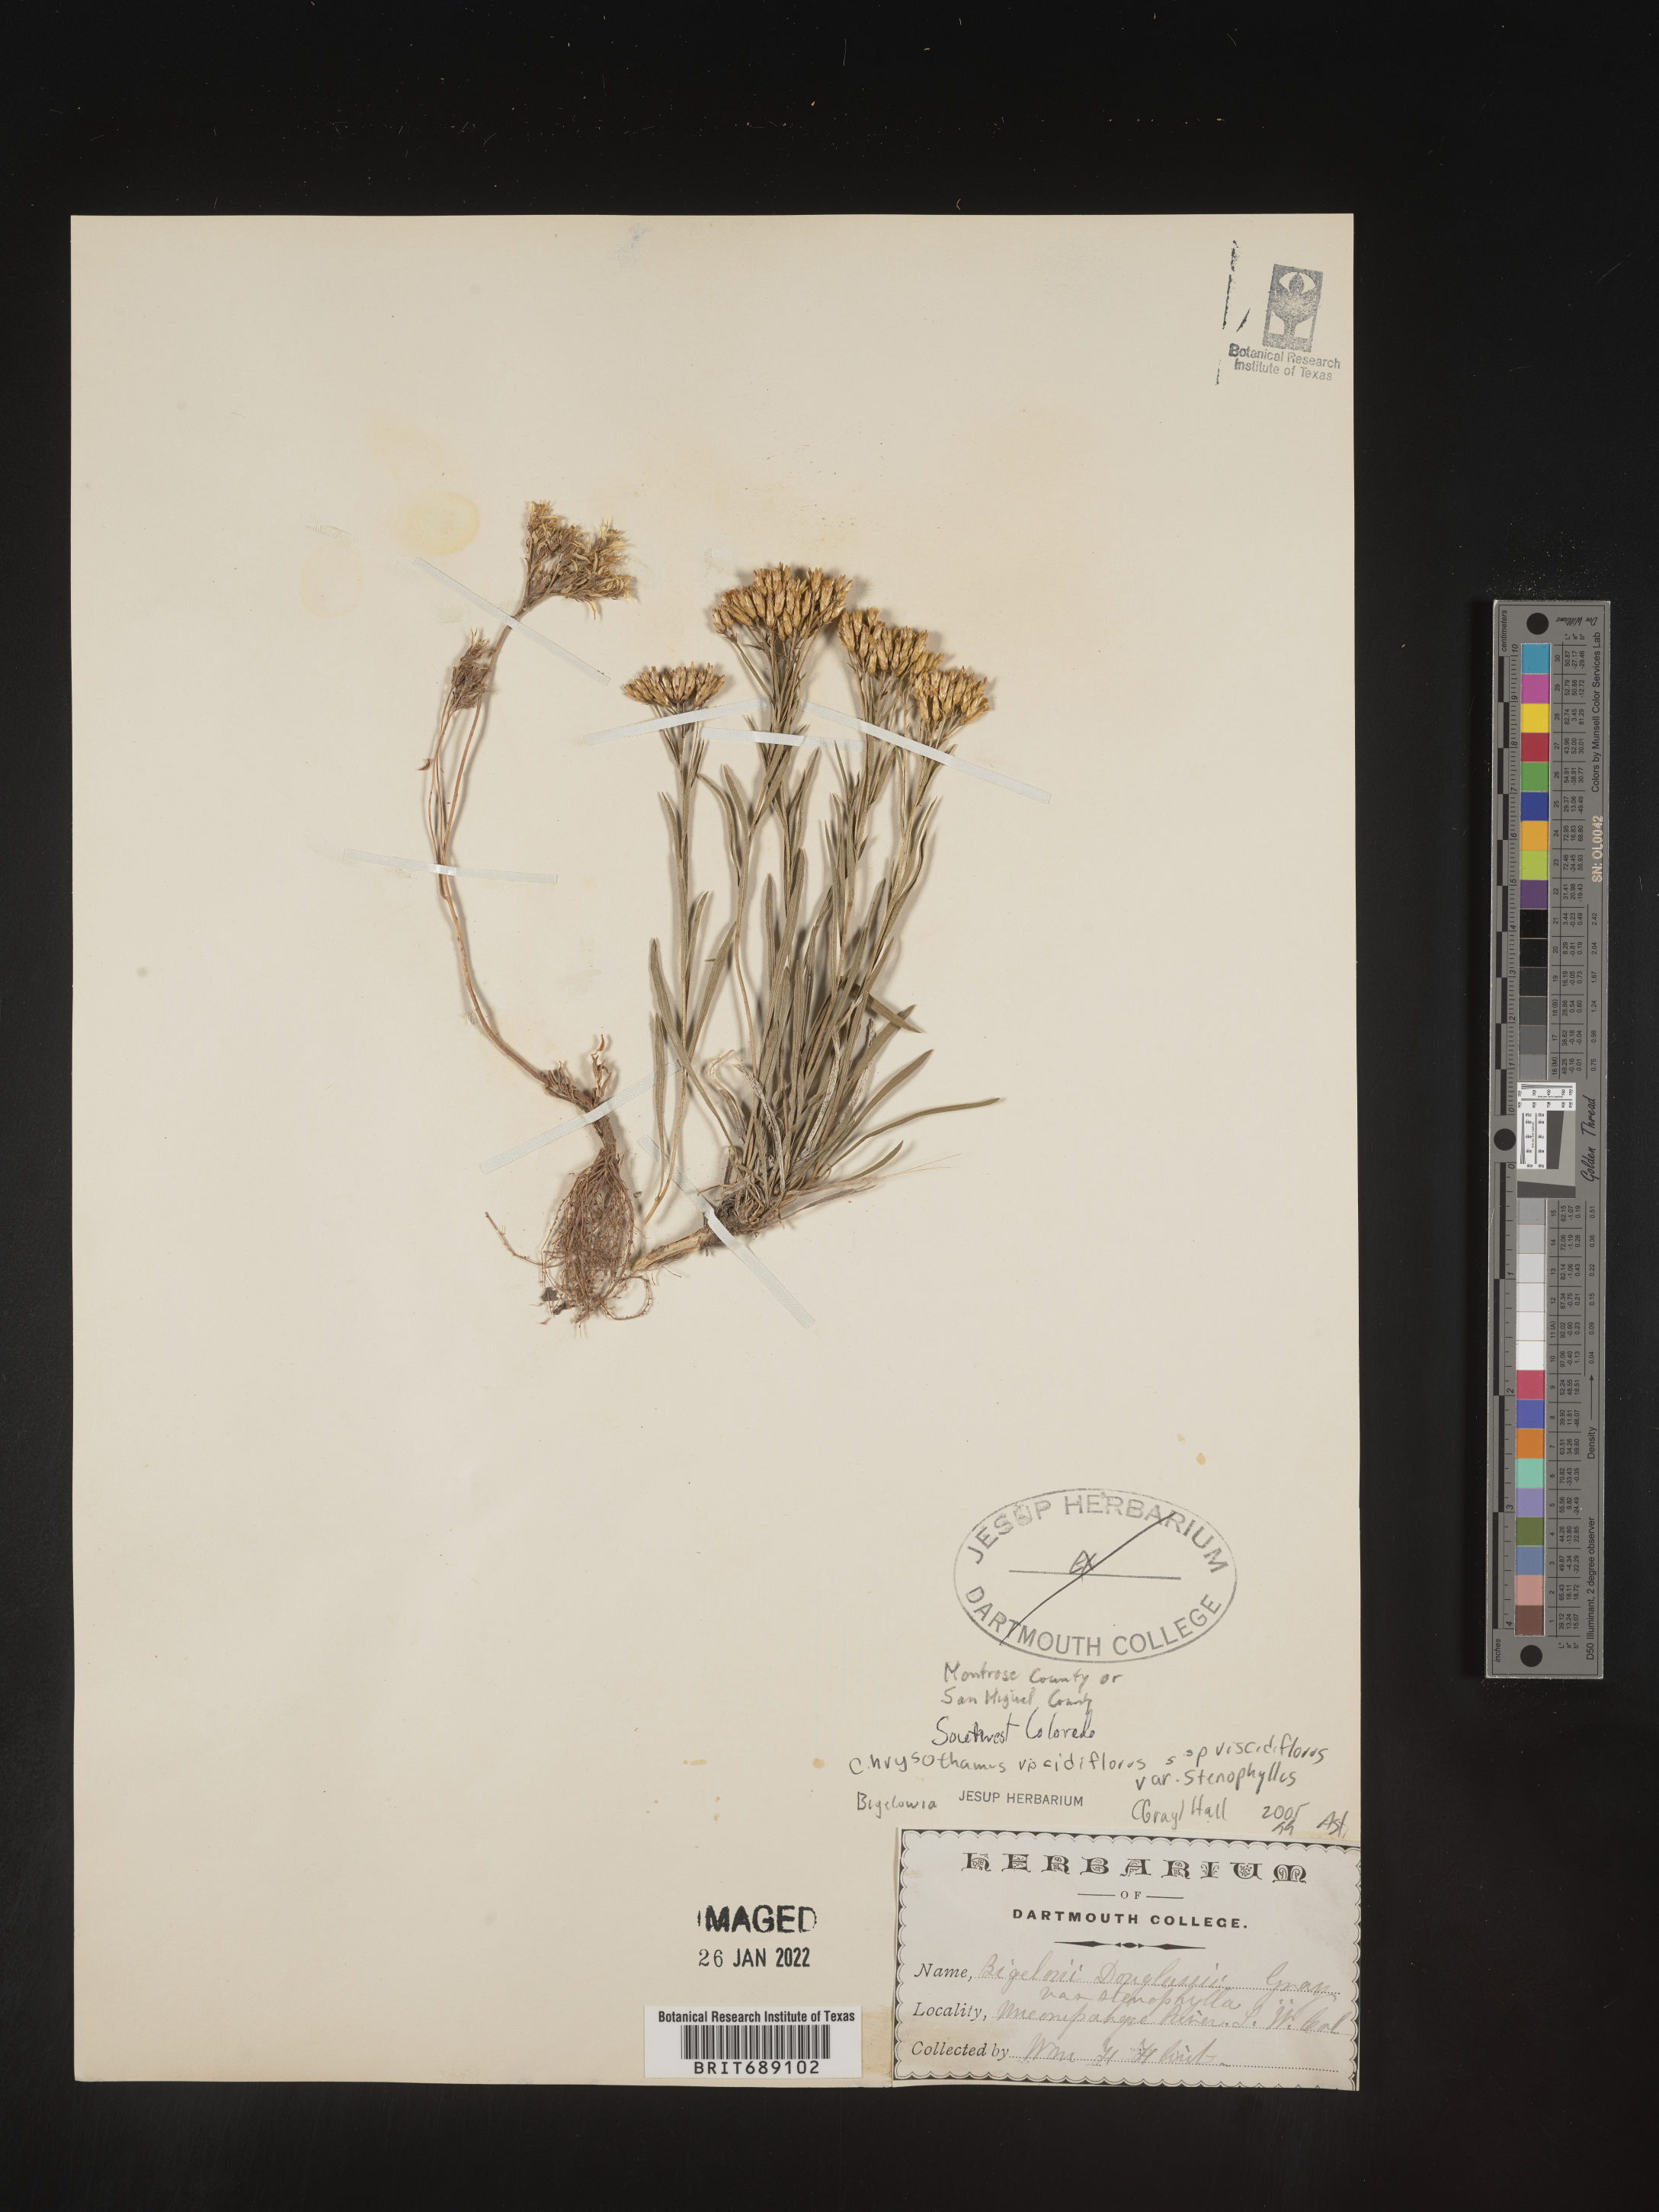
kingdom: Plantae
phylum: Tracheophyta
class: Magnoliopsida
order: Asterales
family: Asteraceae
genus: Chrysothamnus
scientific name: Chrysothamnus viscidiflorus
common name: Yellow rabbitbrush
